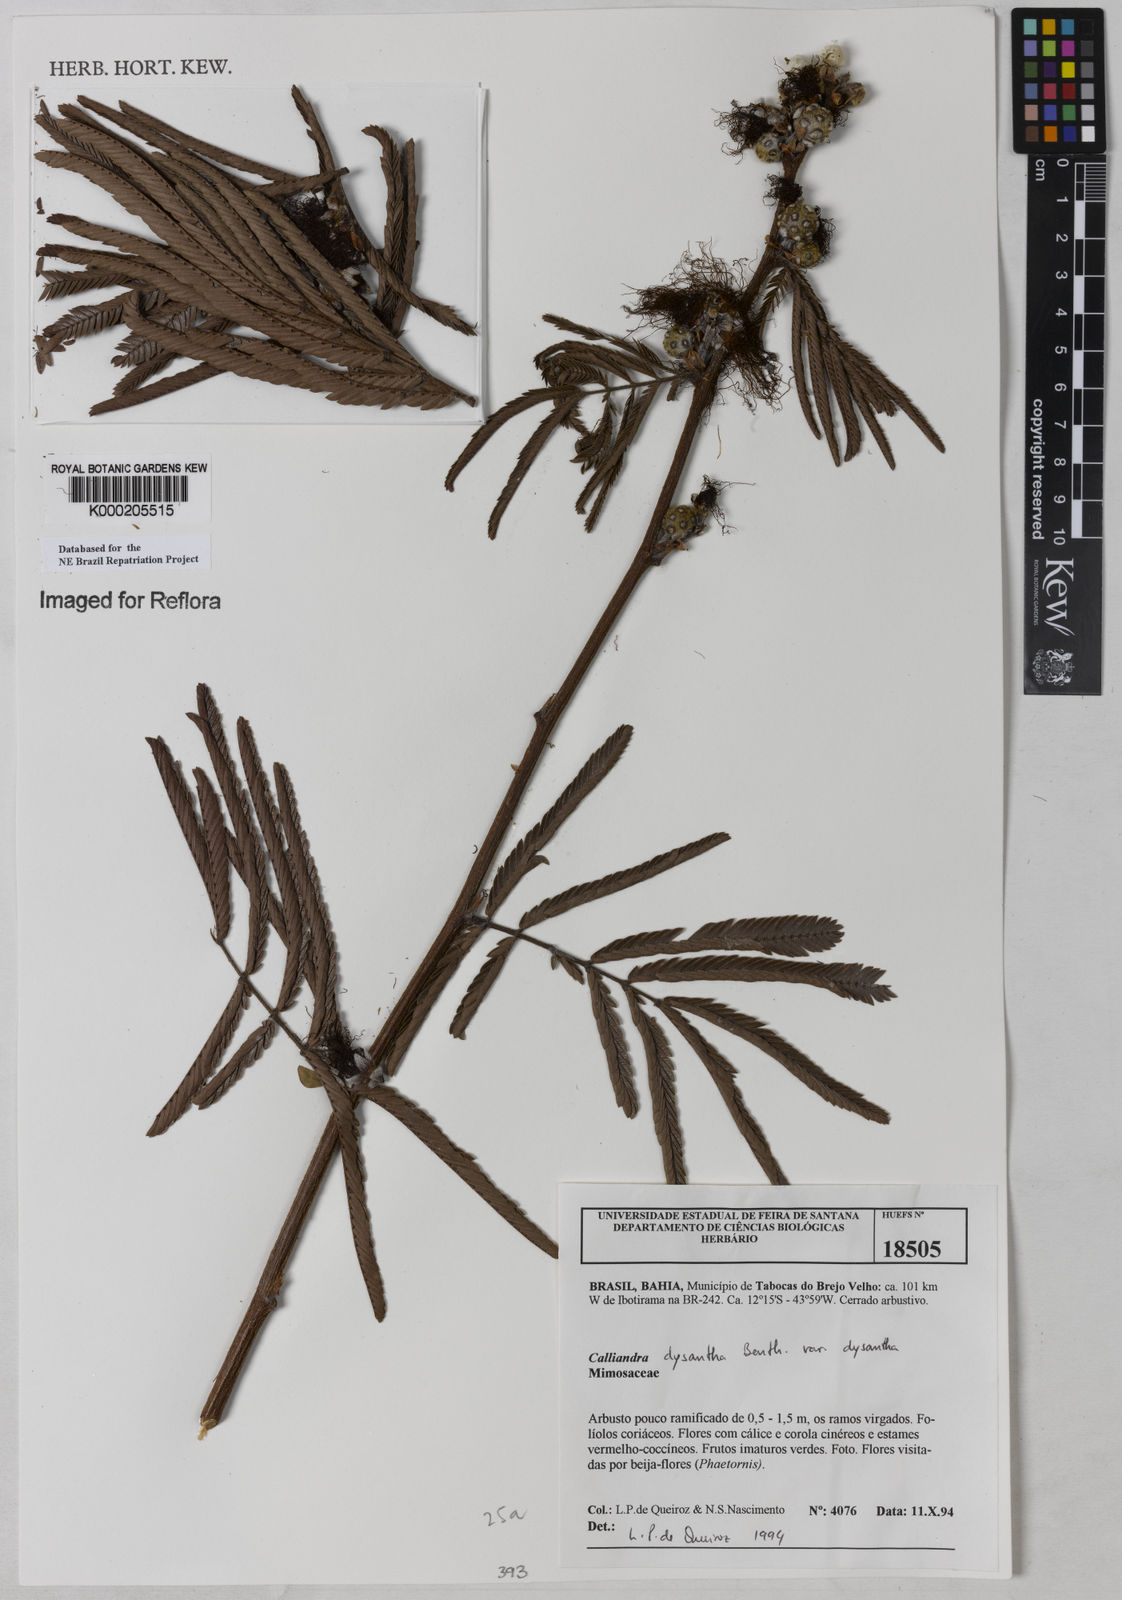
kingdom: Plantae
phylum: Tracheophyta
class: Magnoliopsida
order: Fabales
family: Fabaceae
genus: Calliandra
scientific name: Calliandra dysantha
